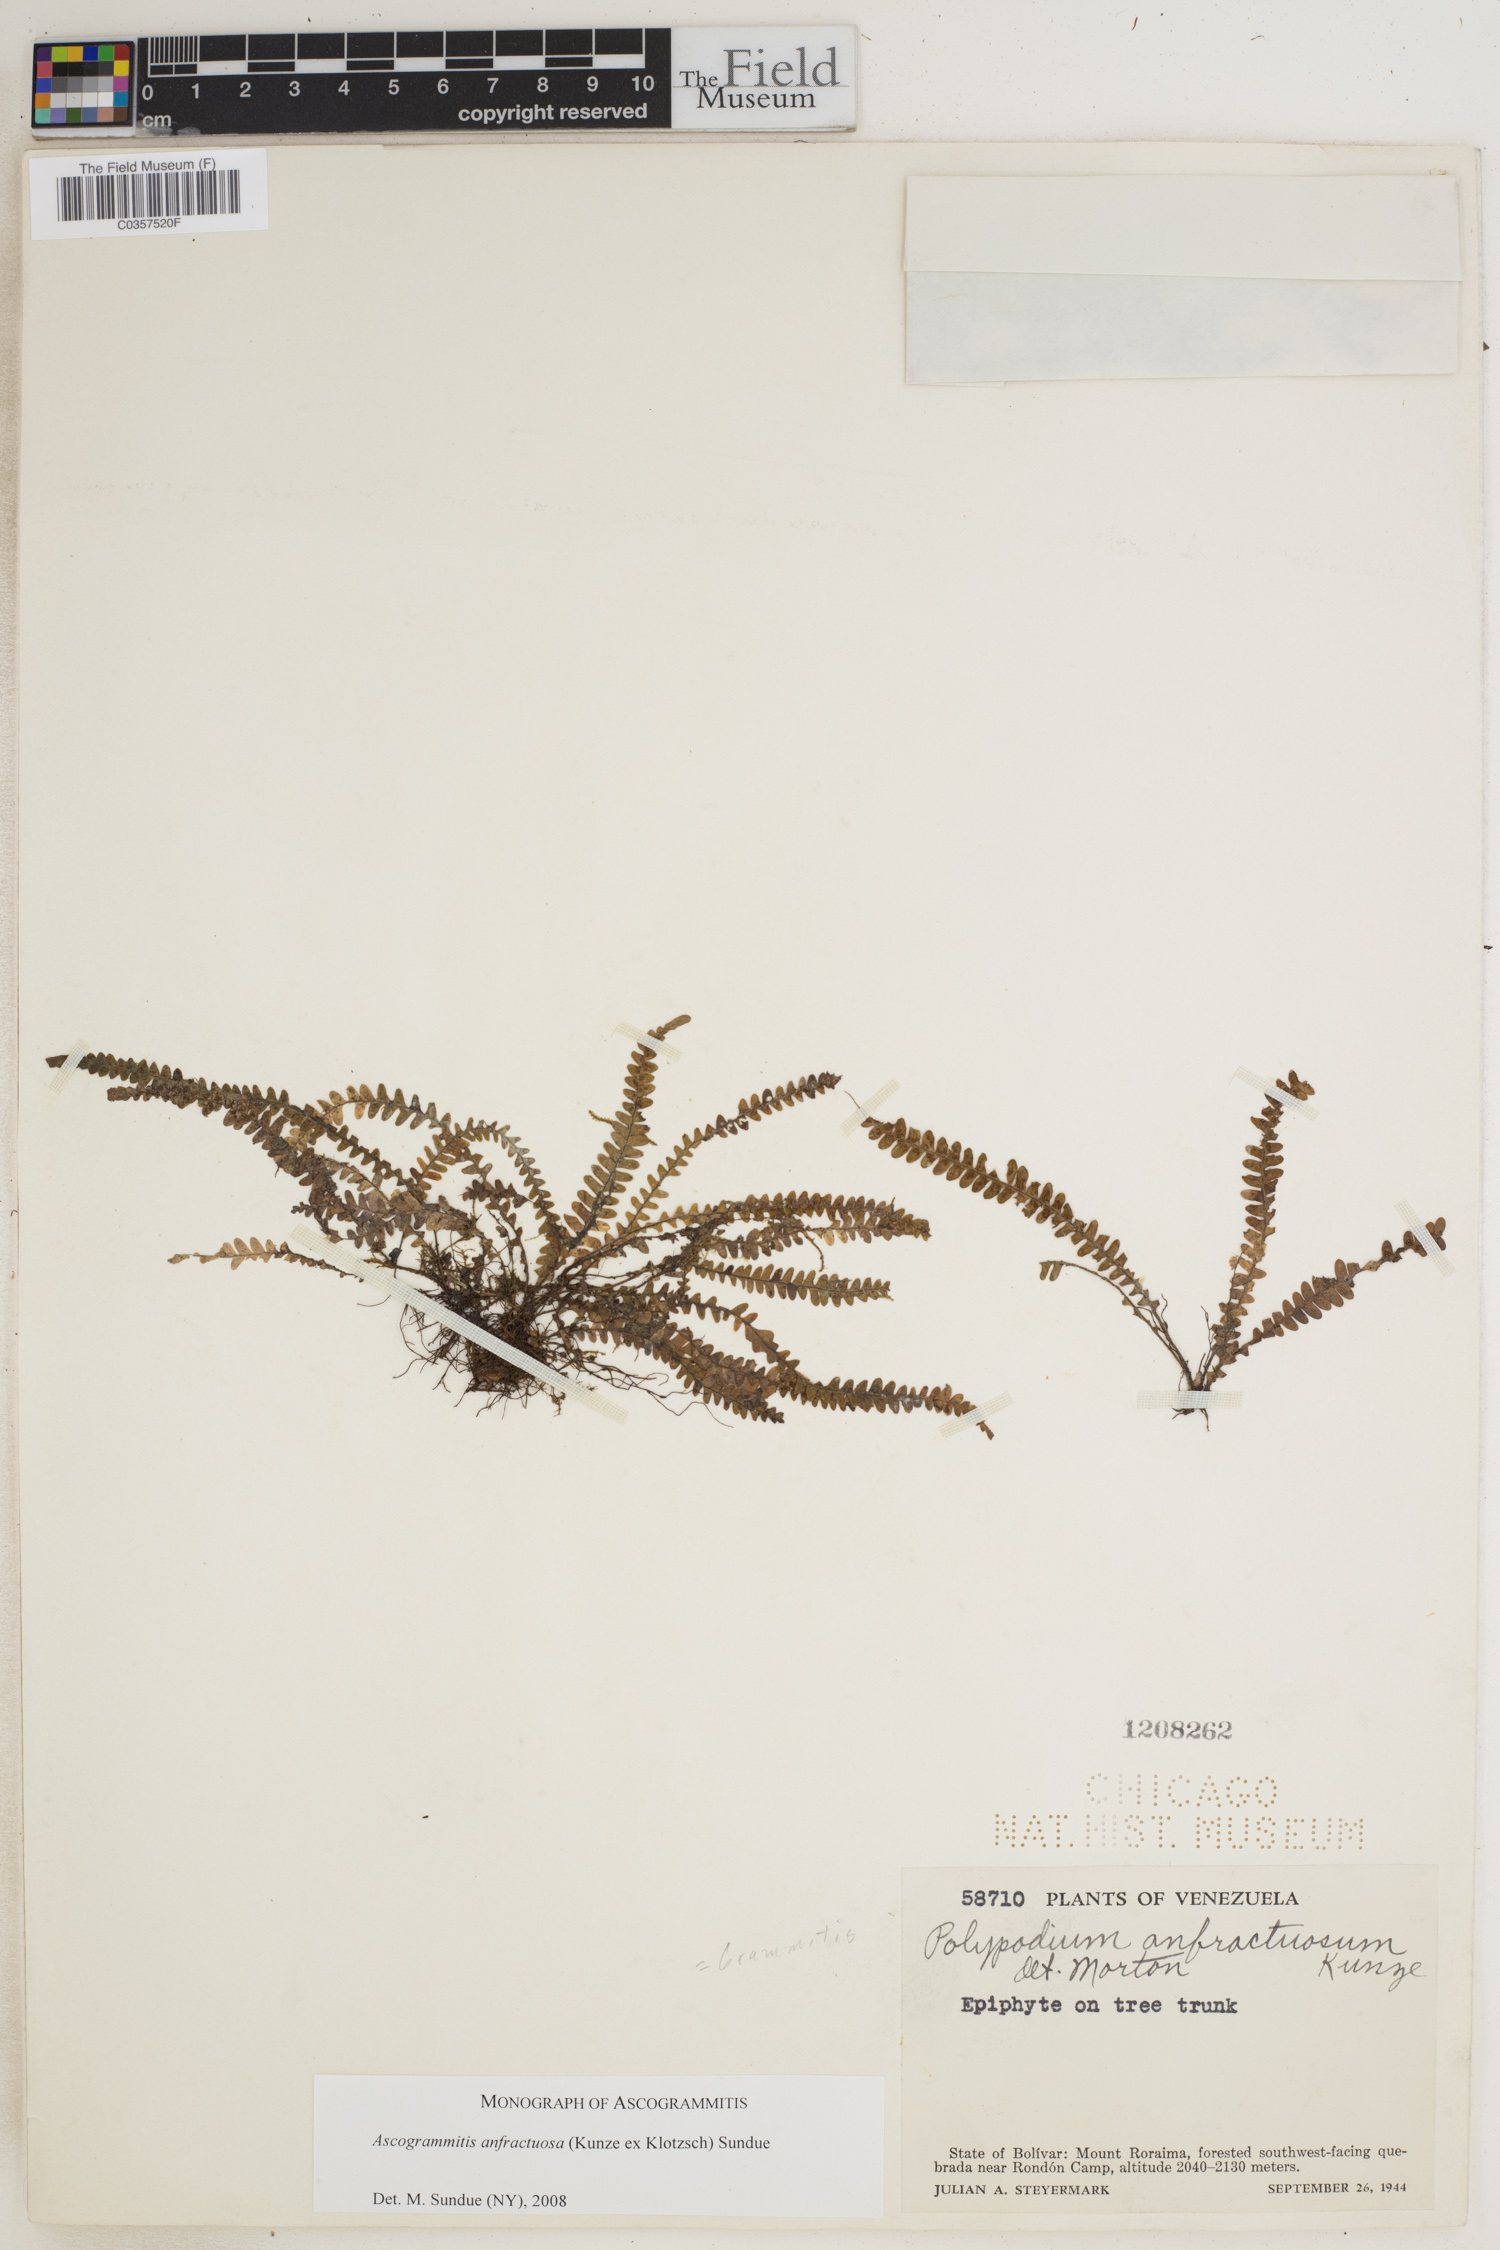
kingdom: Plantae
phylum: Tracheophyta
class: Polypodiopsida
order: Polypodiales
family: Polypodiaceae
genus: Ascogrammitis
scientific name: Ascogrammitis anfractuosa
